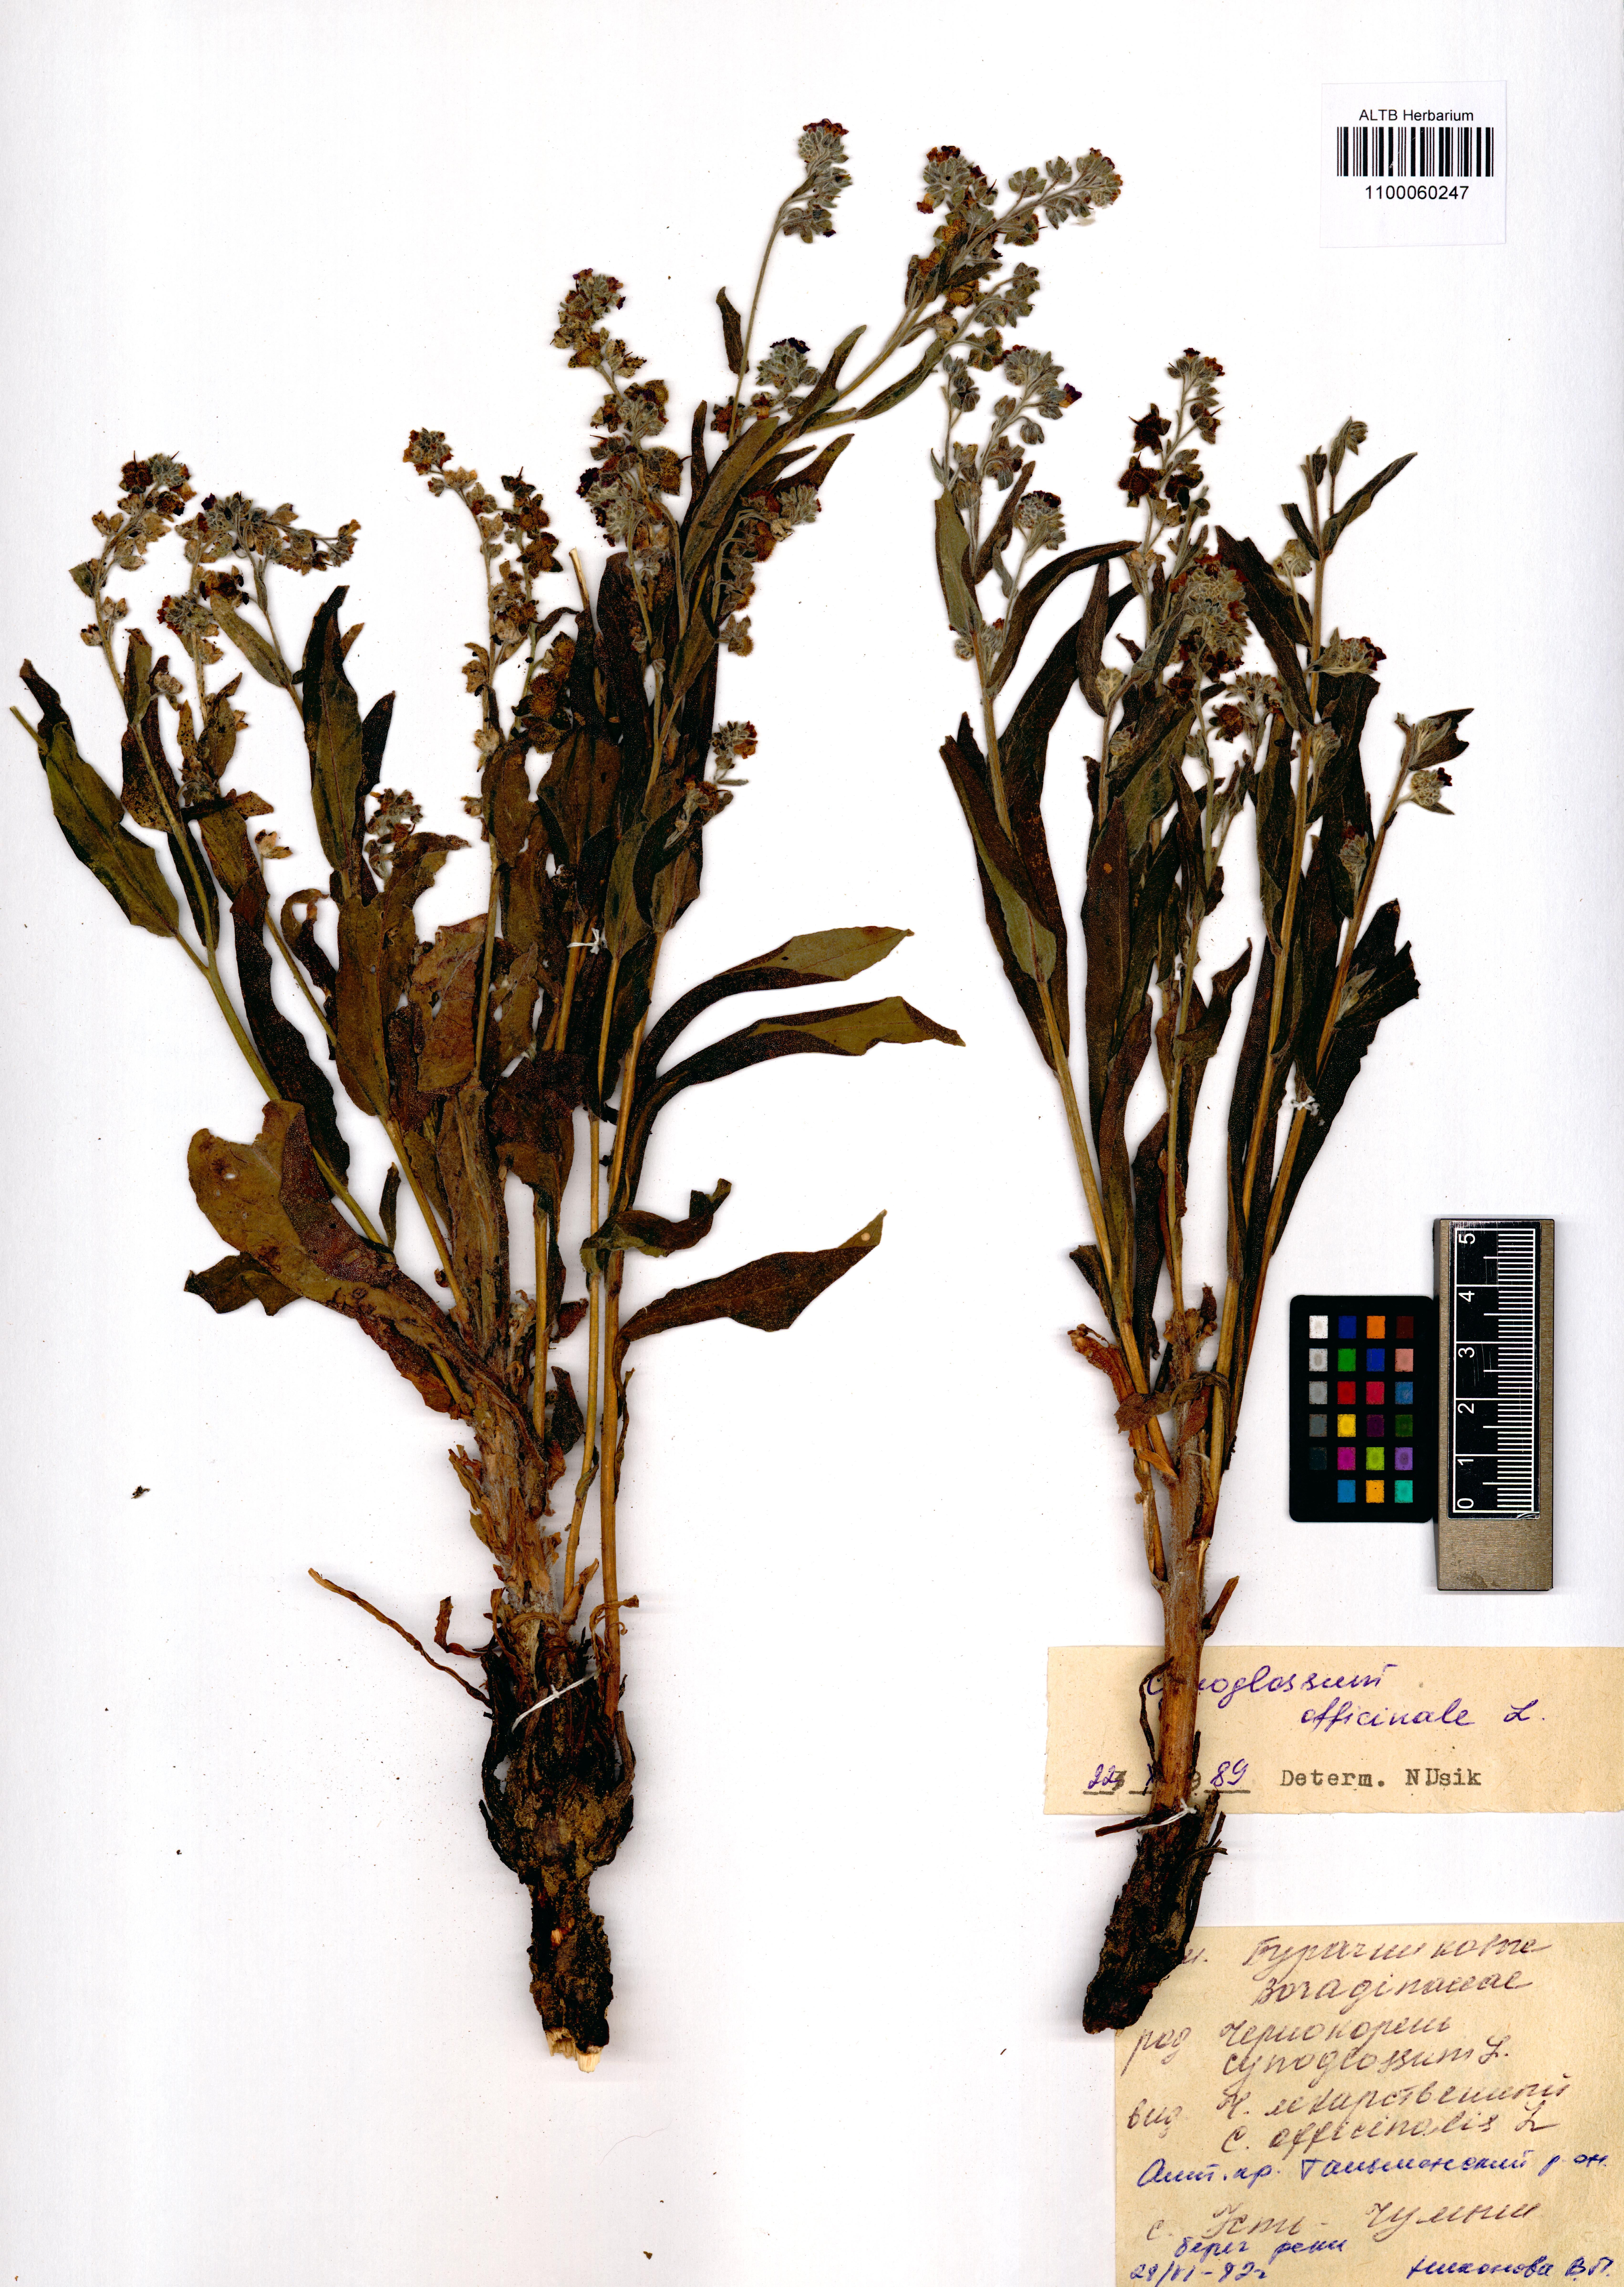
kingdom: Plantae
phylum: Tracheophyta
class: Magnoliopsida
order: Boraginales
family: Boraginaceae
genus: Cynoglossum
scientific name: Cynoglossum officinale
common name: Hound's-tongue
